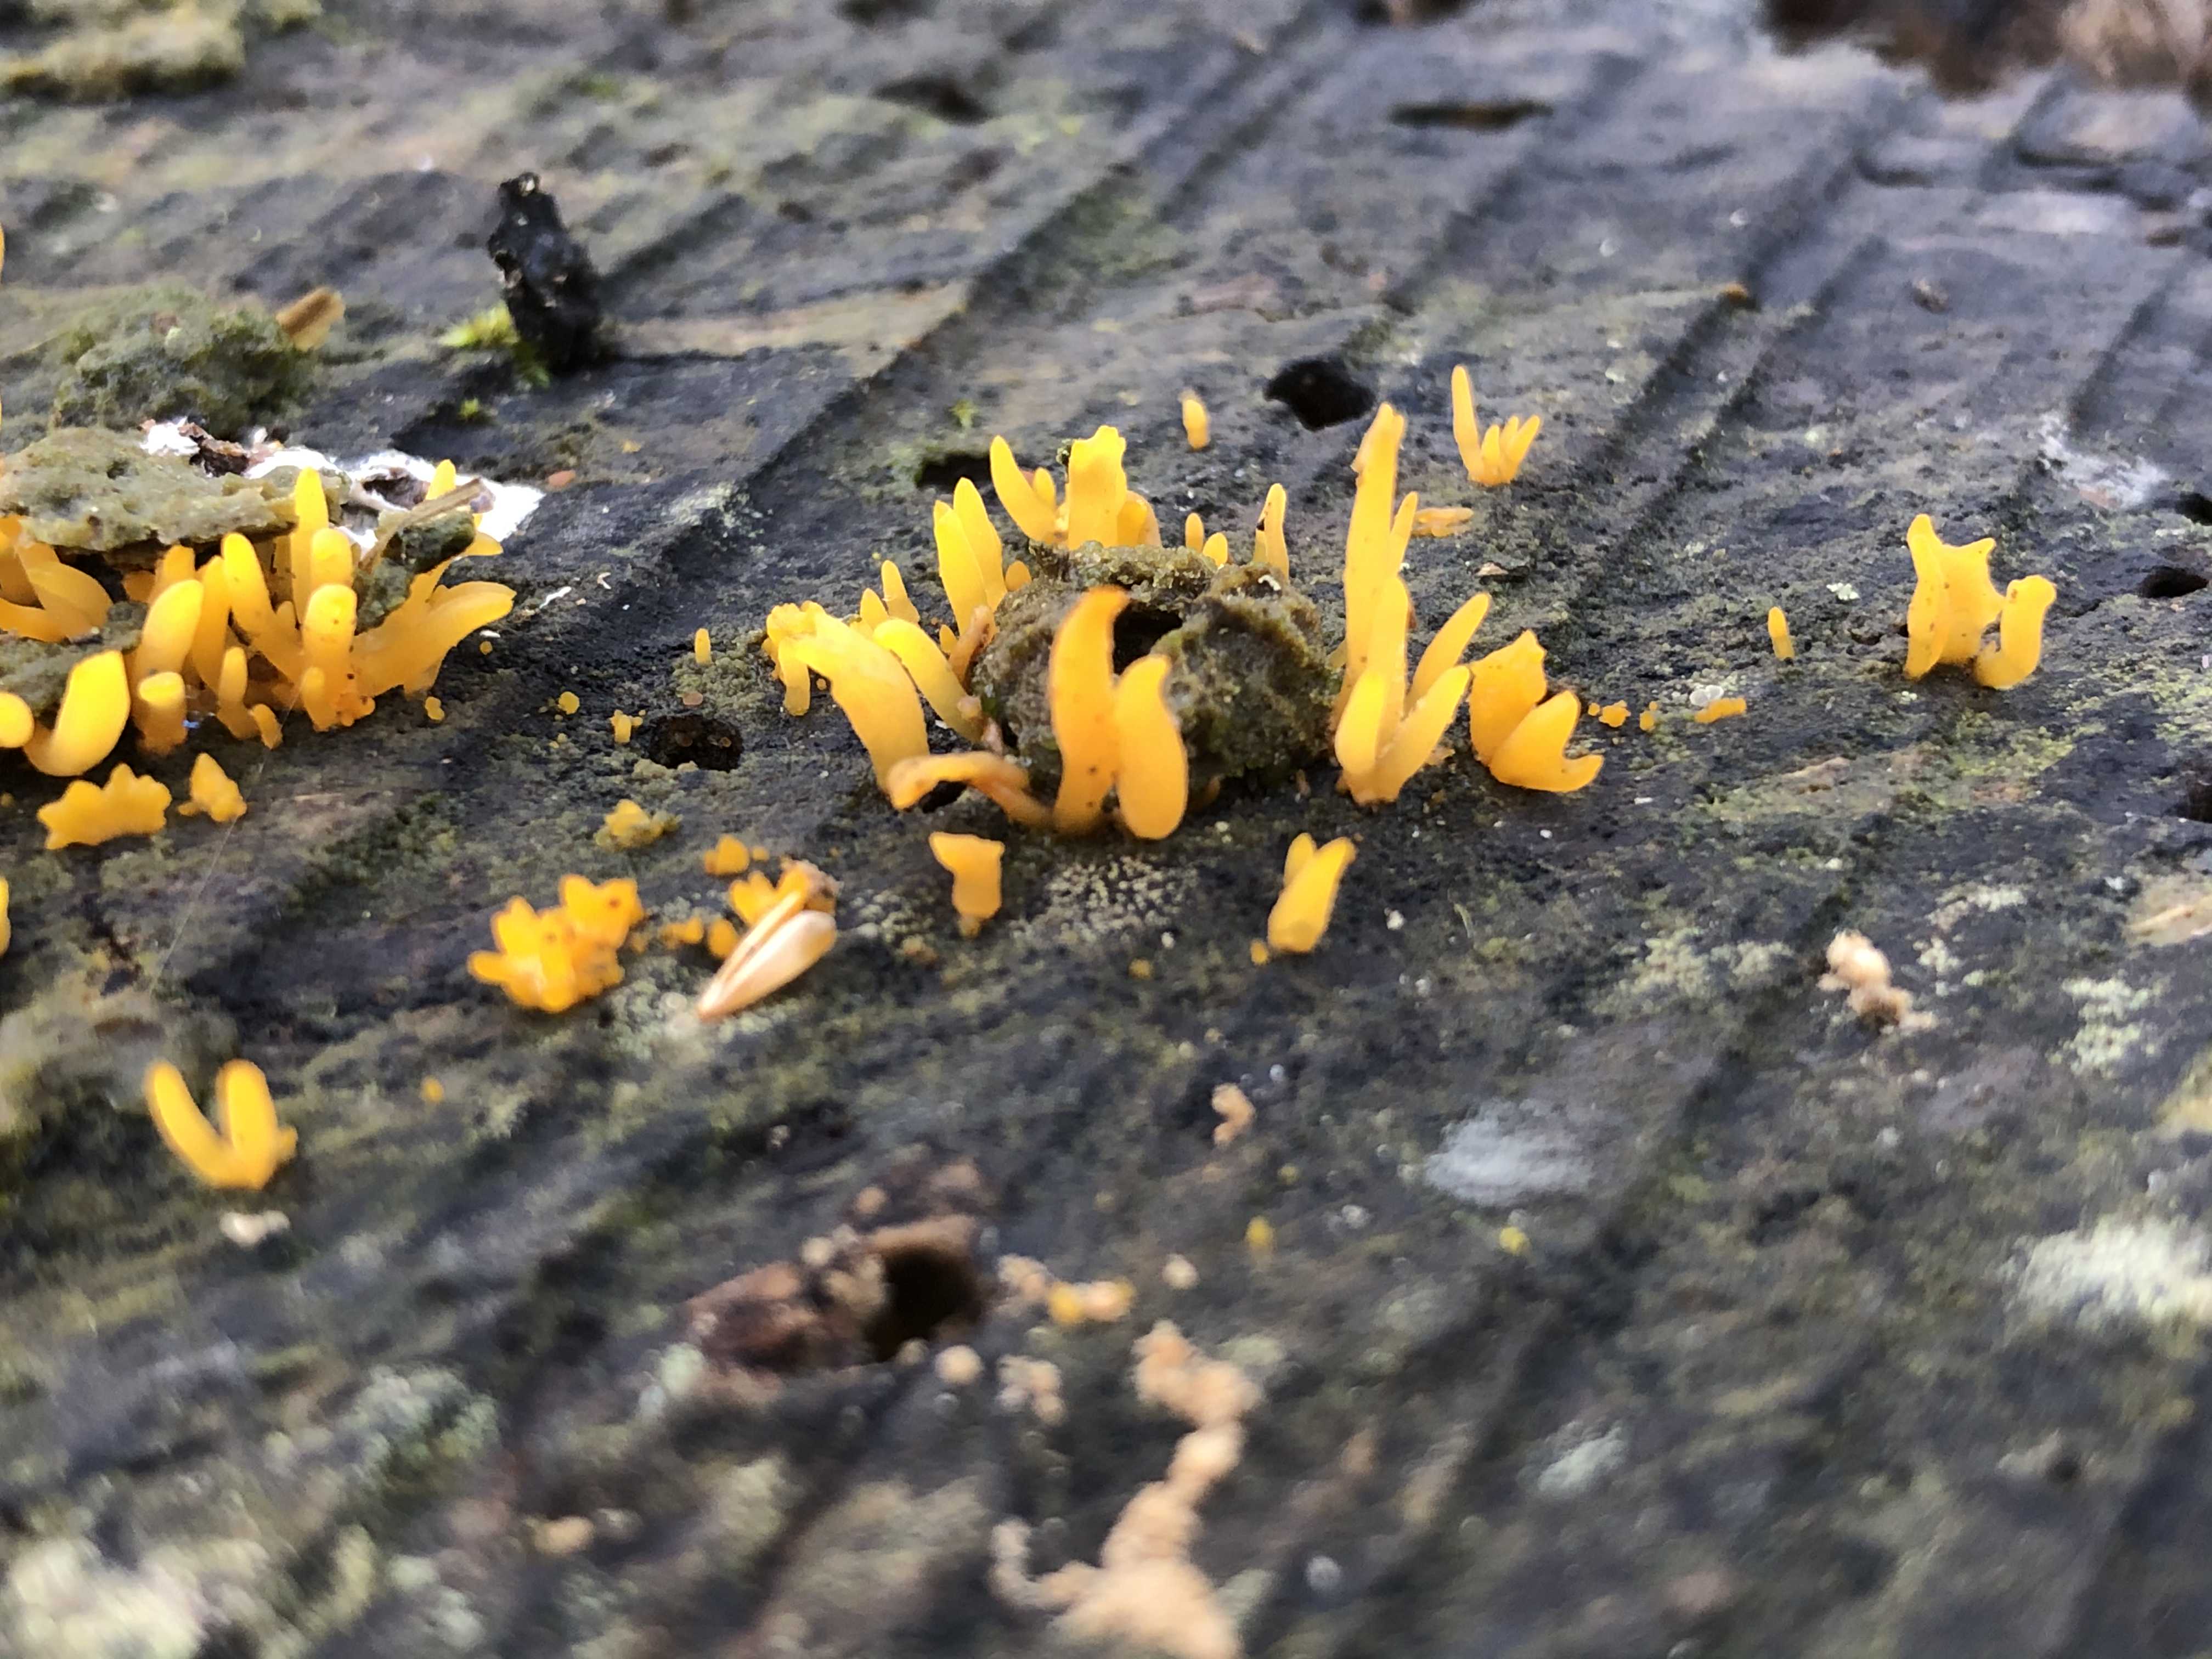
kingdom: Fungi
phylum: Basidiomycota
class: Dacrymycetes
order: Dacrymycetales
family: Dacrymycetaceae
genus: Calocera
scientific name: Calocera cornea
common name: liden guldgaffel
